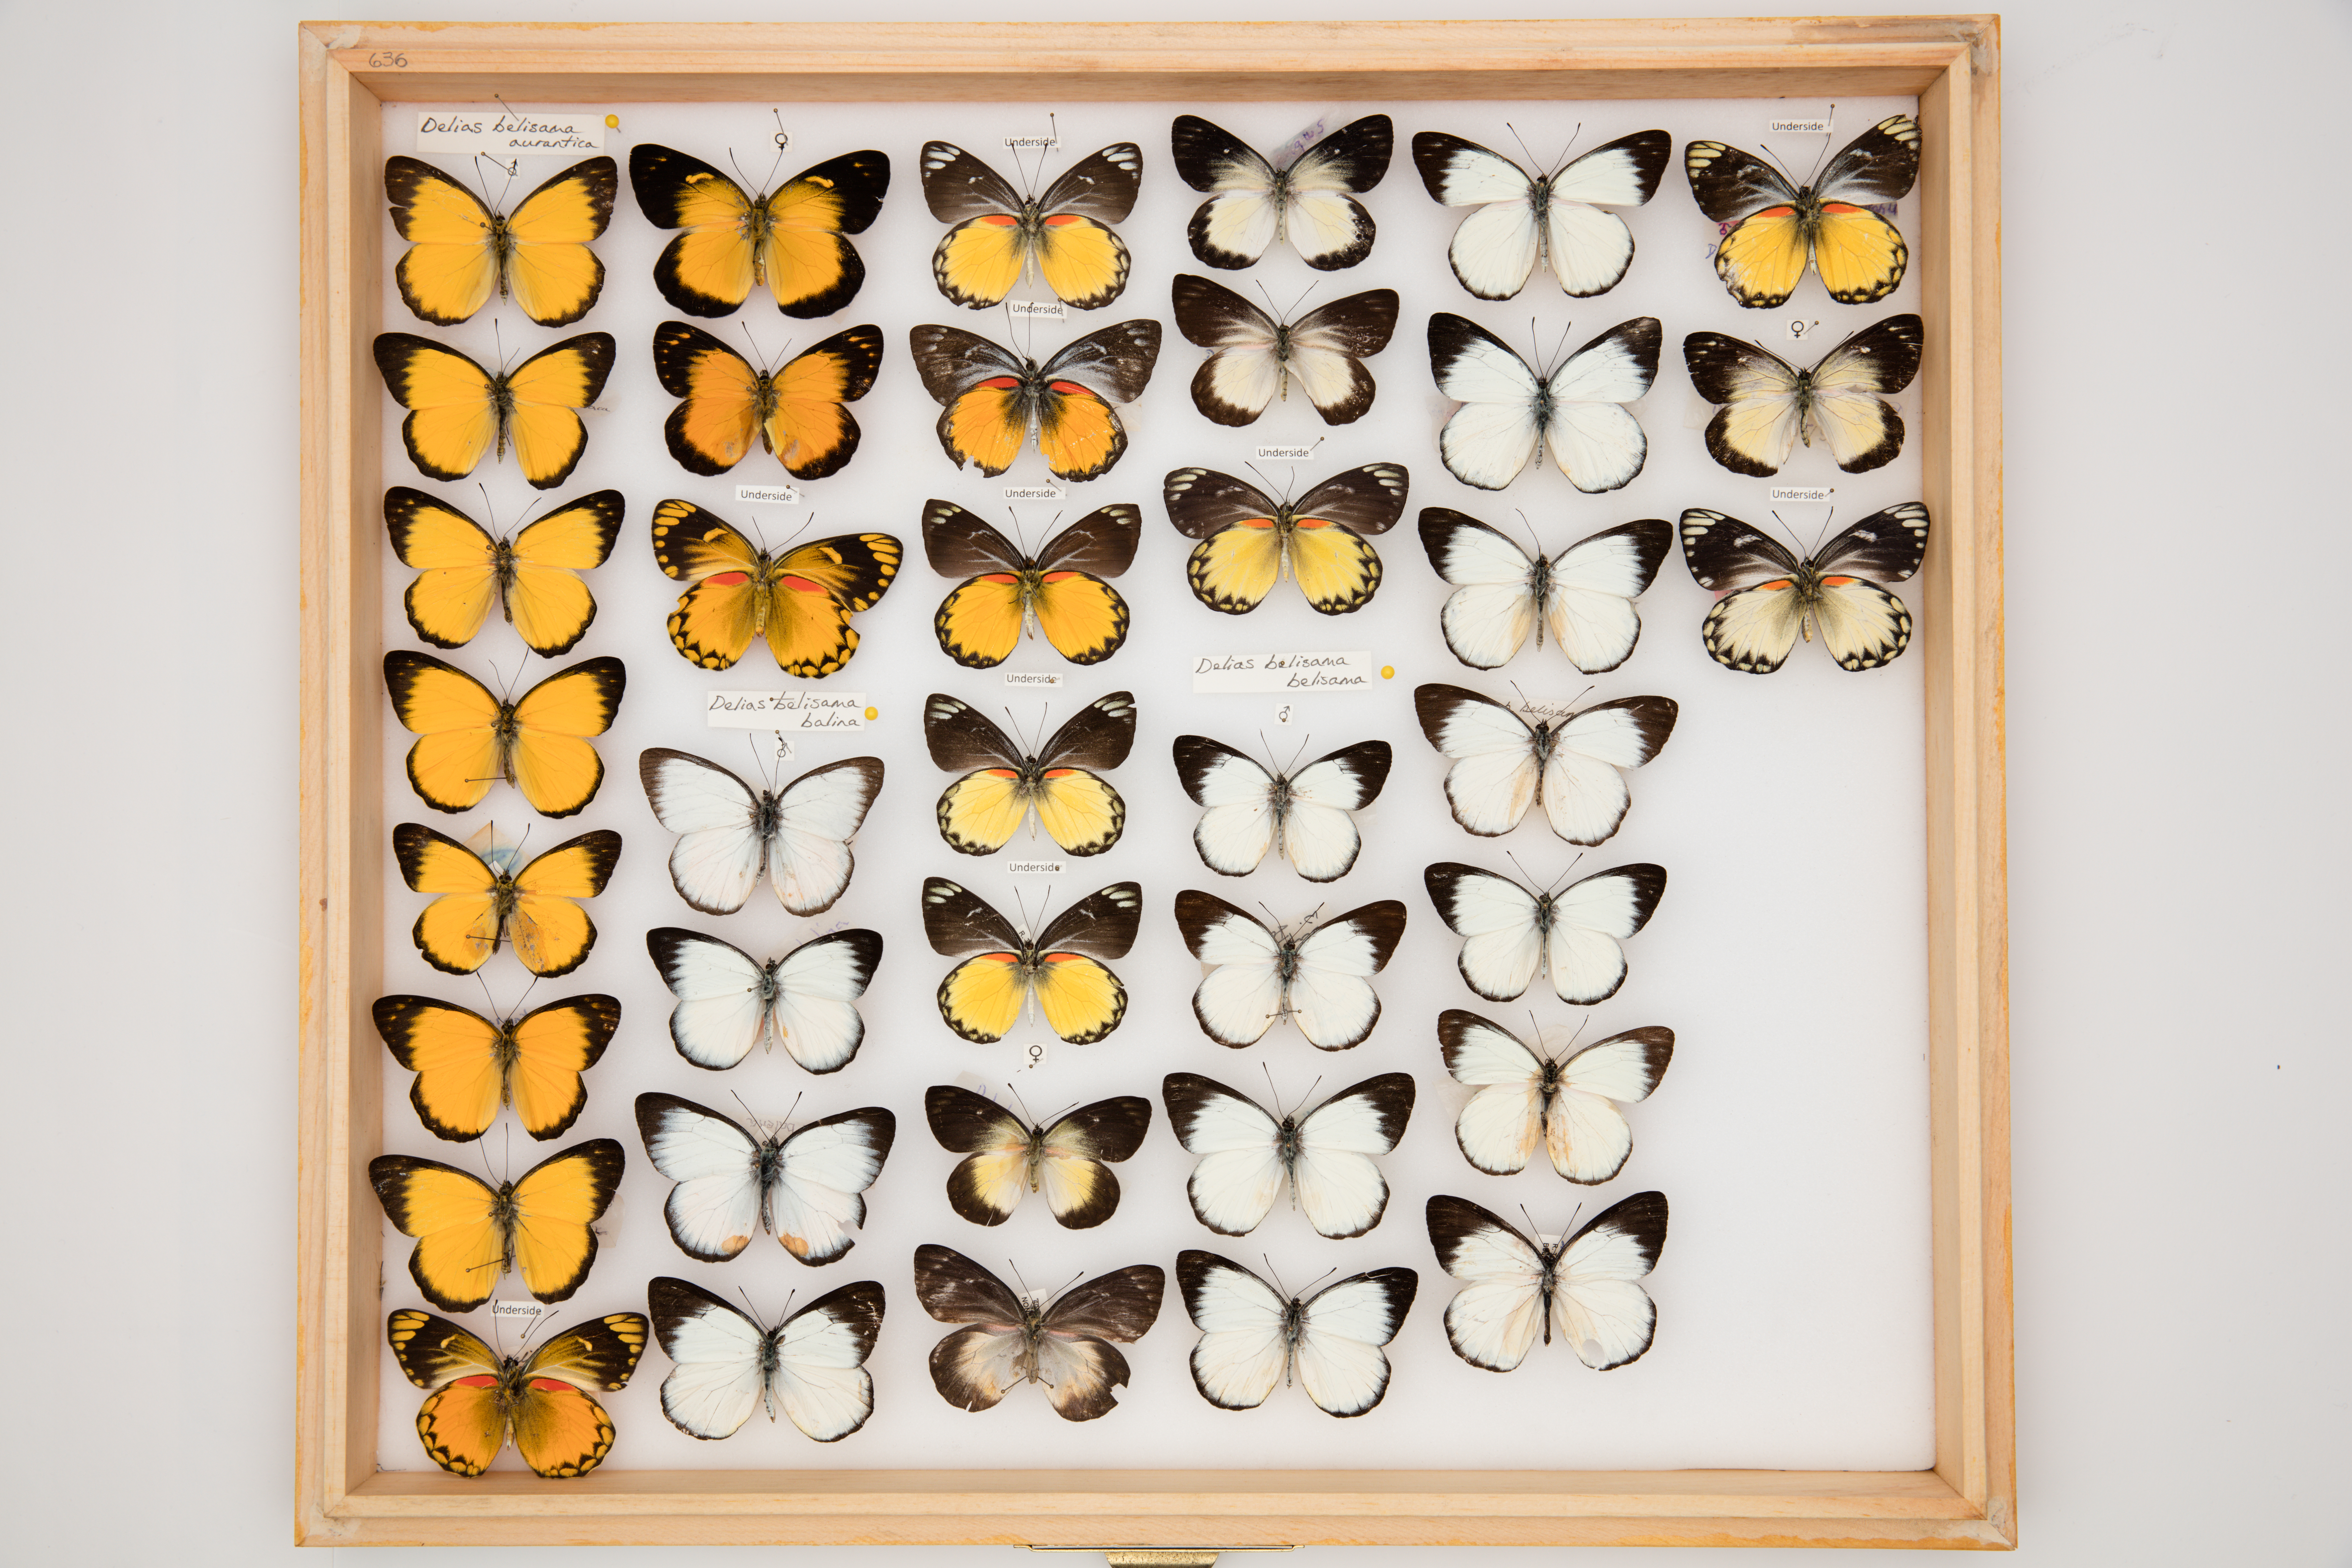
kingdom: Animalia
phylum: Arthropoda
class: Insecta
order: Lepidoptera
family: Pieridae
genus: Delias
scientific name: Delias belisama
